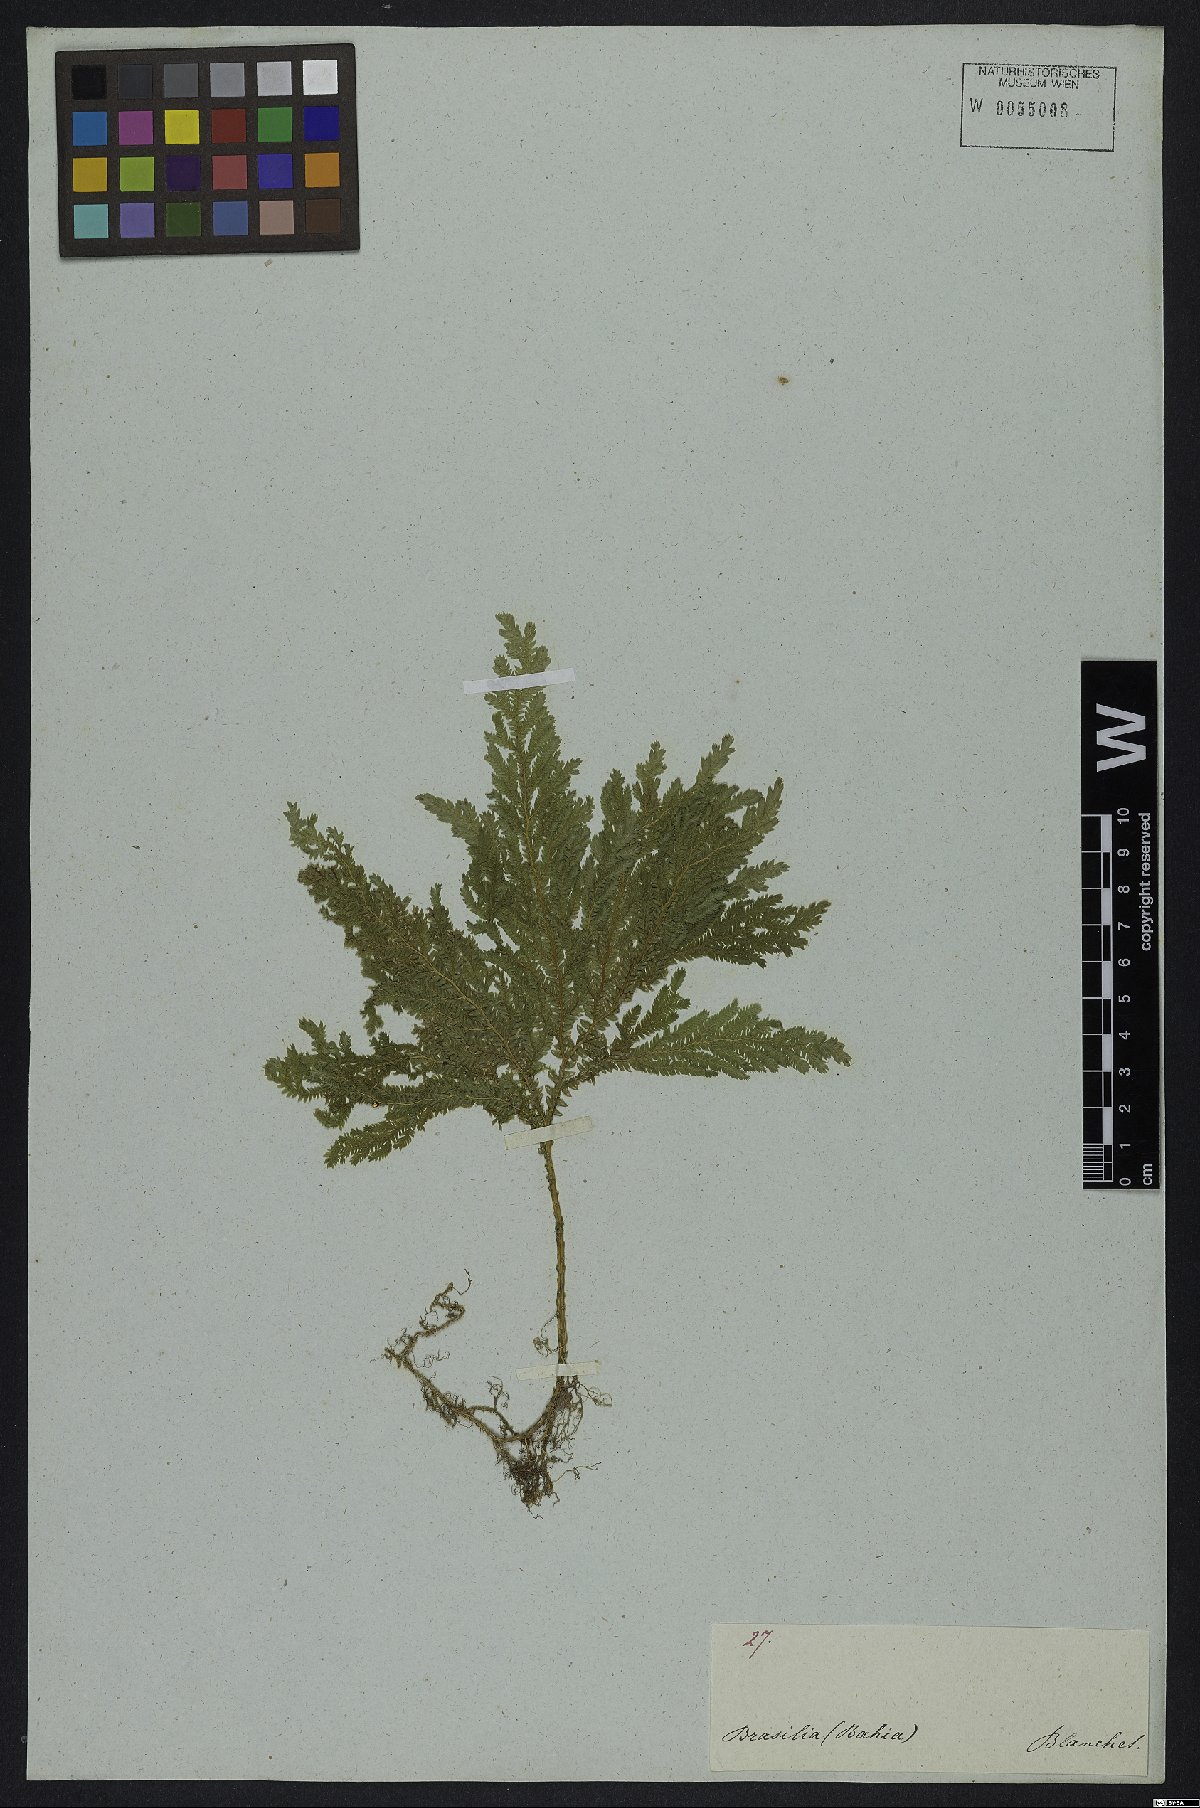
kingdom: Plantae
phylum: Tracheophyta
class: Lycopodiopsida
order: Selaginellales
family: Selaginellaceae
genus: Selaginella
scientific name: Selaginella erythropus
